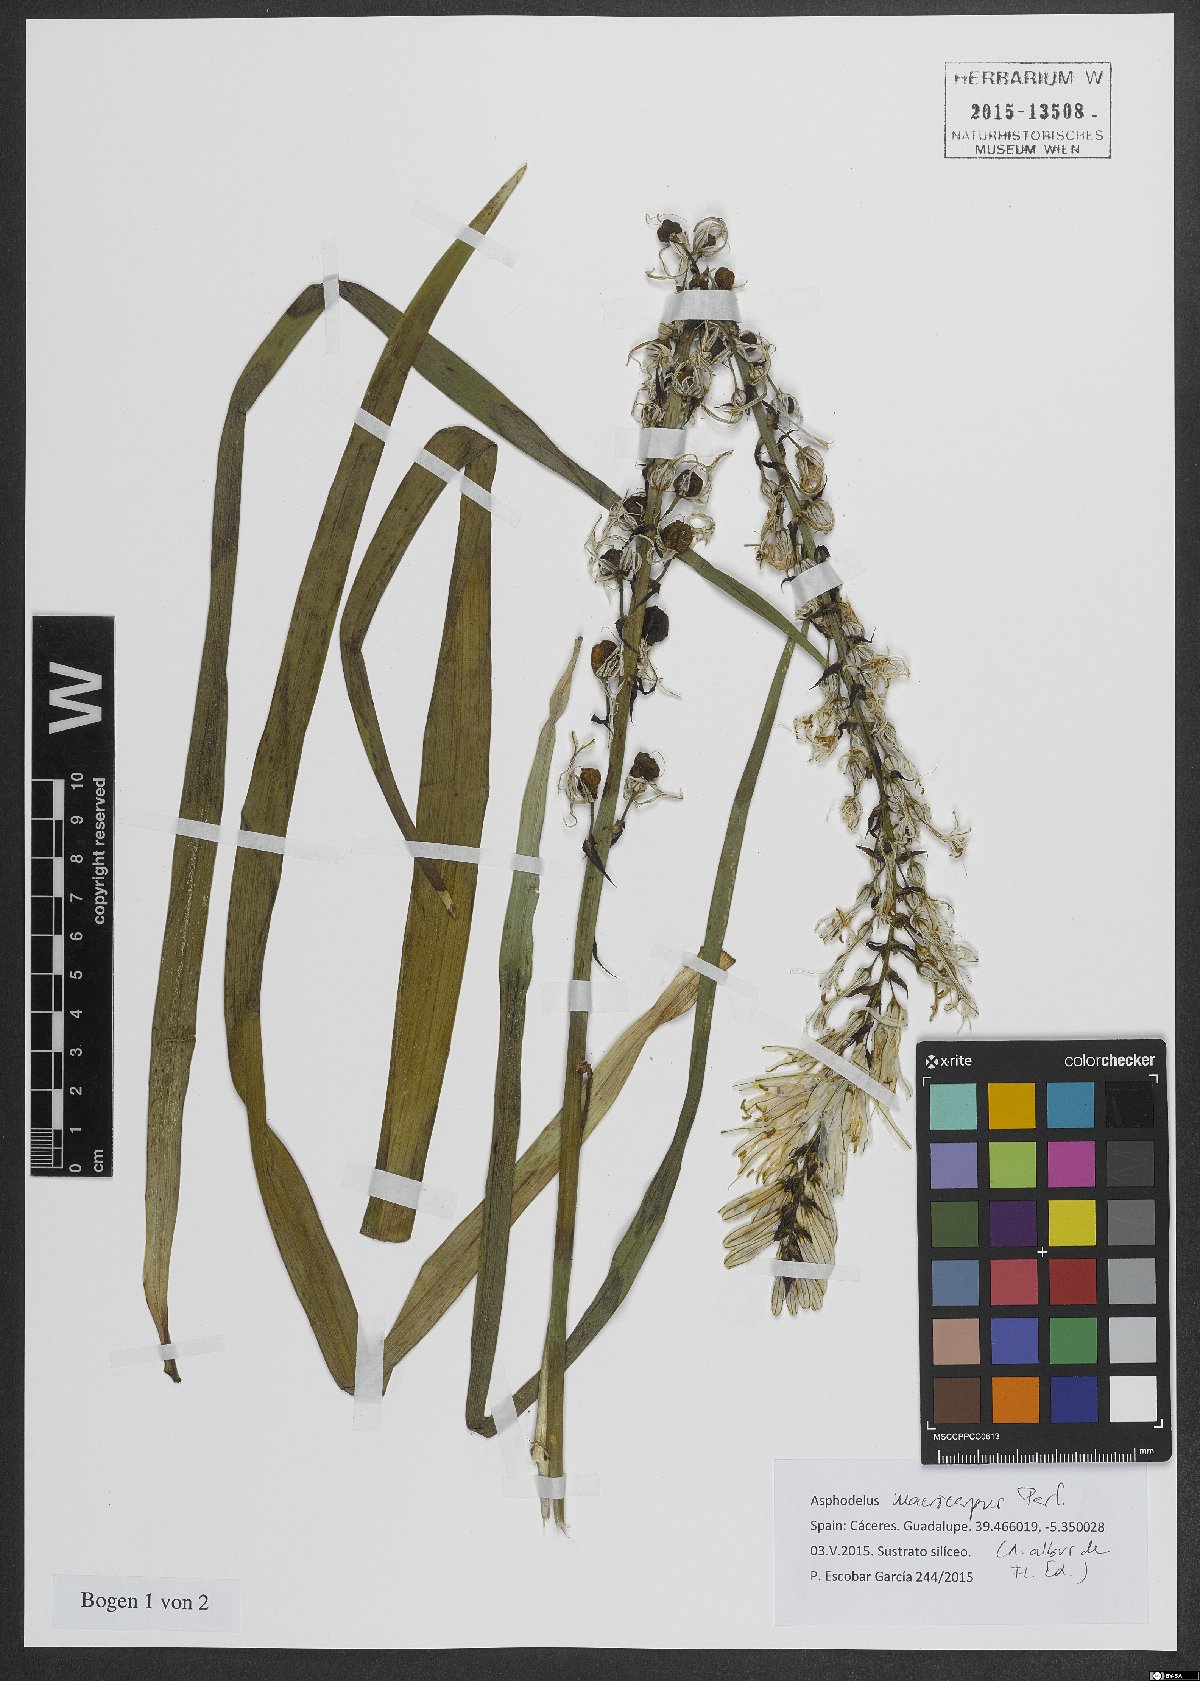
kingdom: Plantae
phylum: Tracheophyta
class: Liliopsida
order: Asparagales
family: Asphodelaceae
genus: Asphodelus
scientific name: Asphodelus macrocarpus
